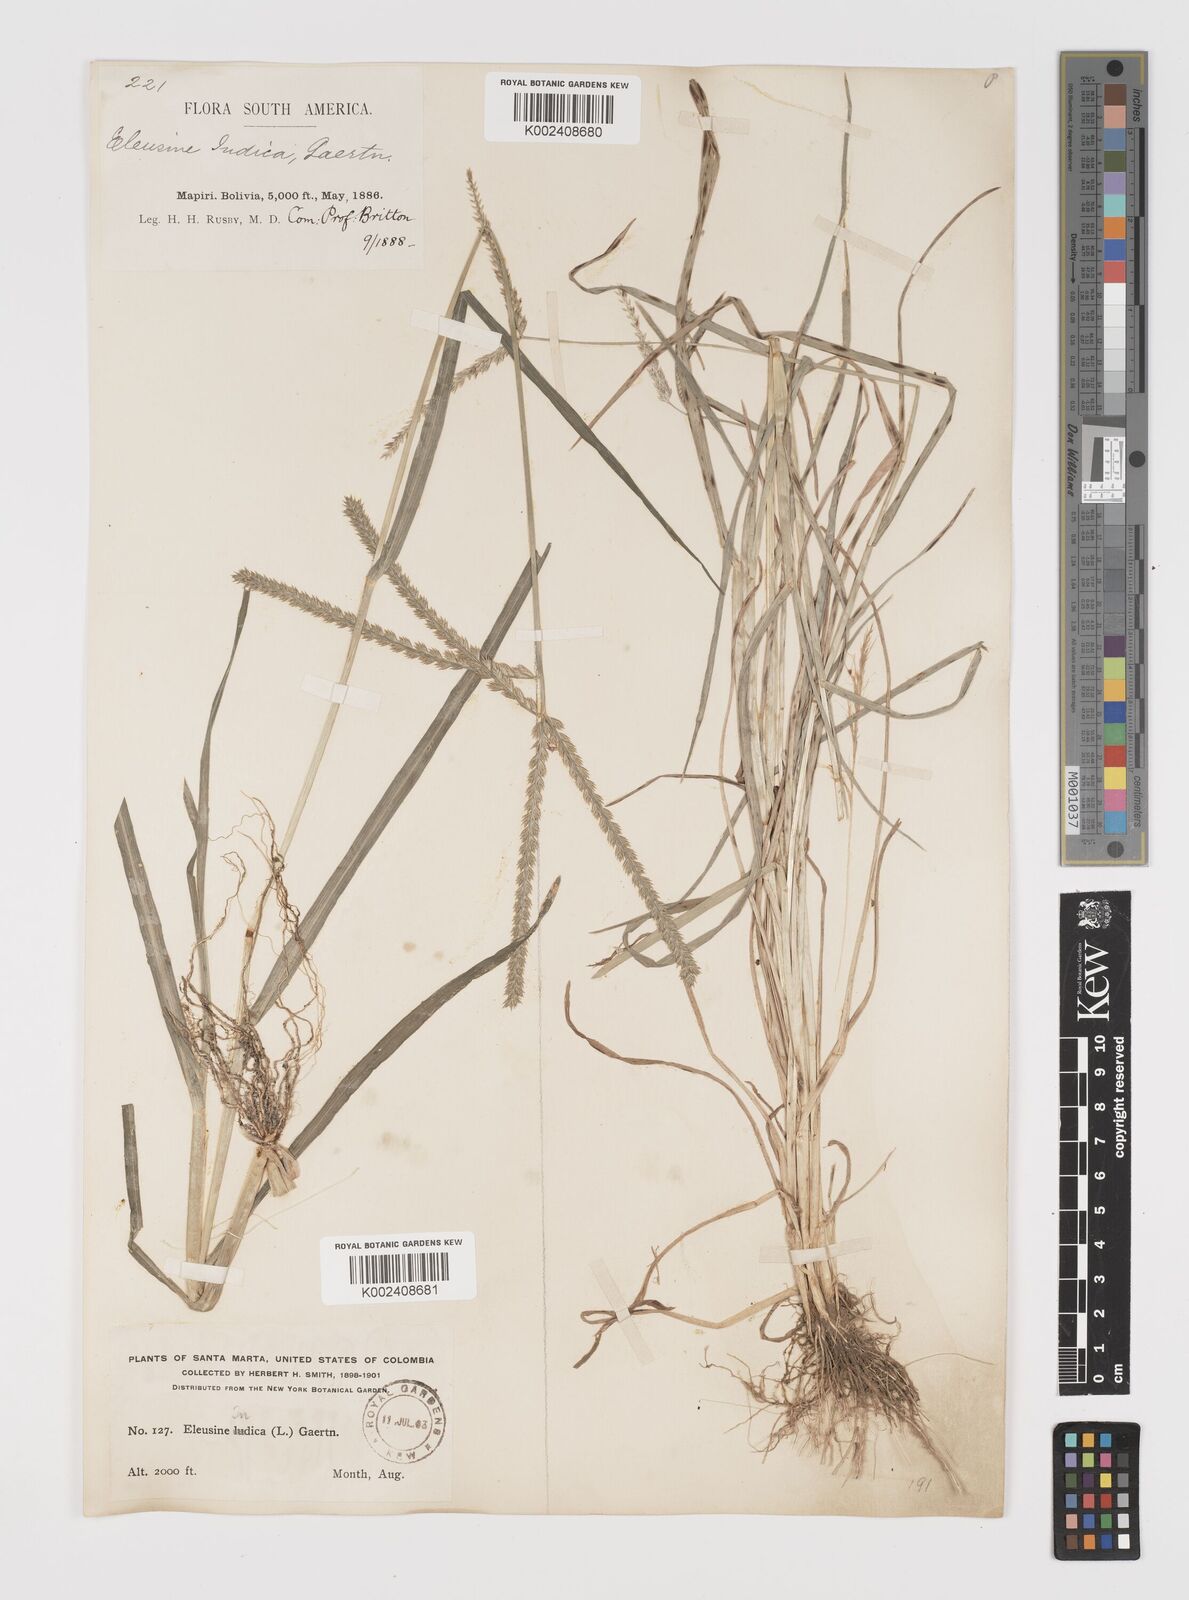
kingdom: Plantae
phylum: Tracheophyta
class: Liliopsida
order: Poales
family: Poaceae
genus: Eleusine
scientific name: Eleusine indica
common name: Yard-grass
